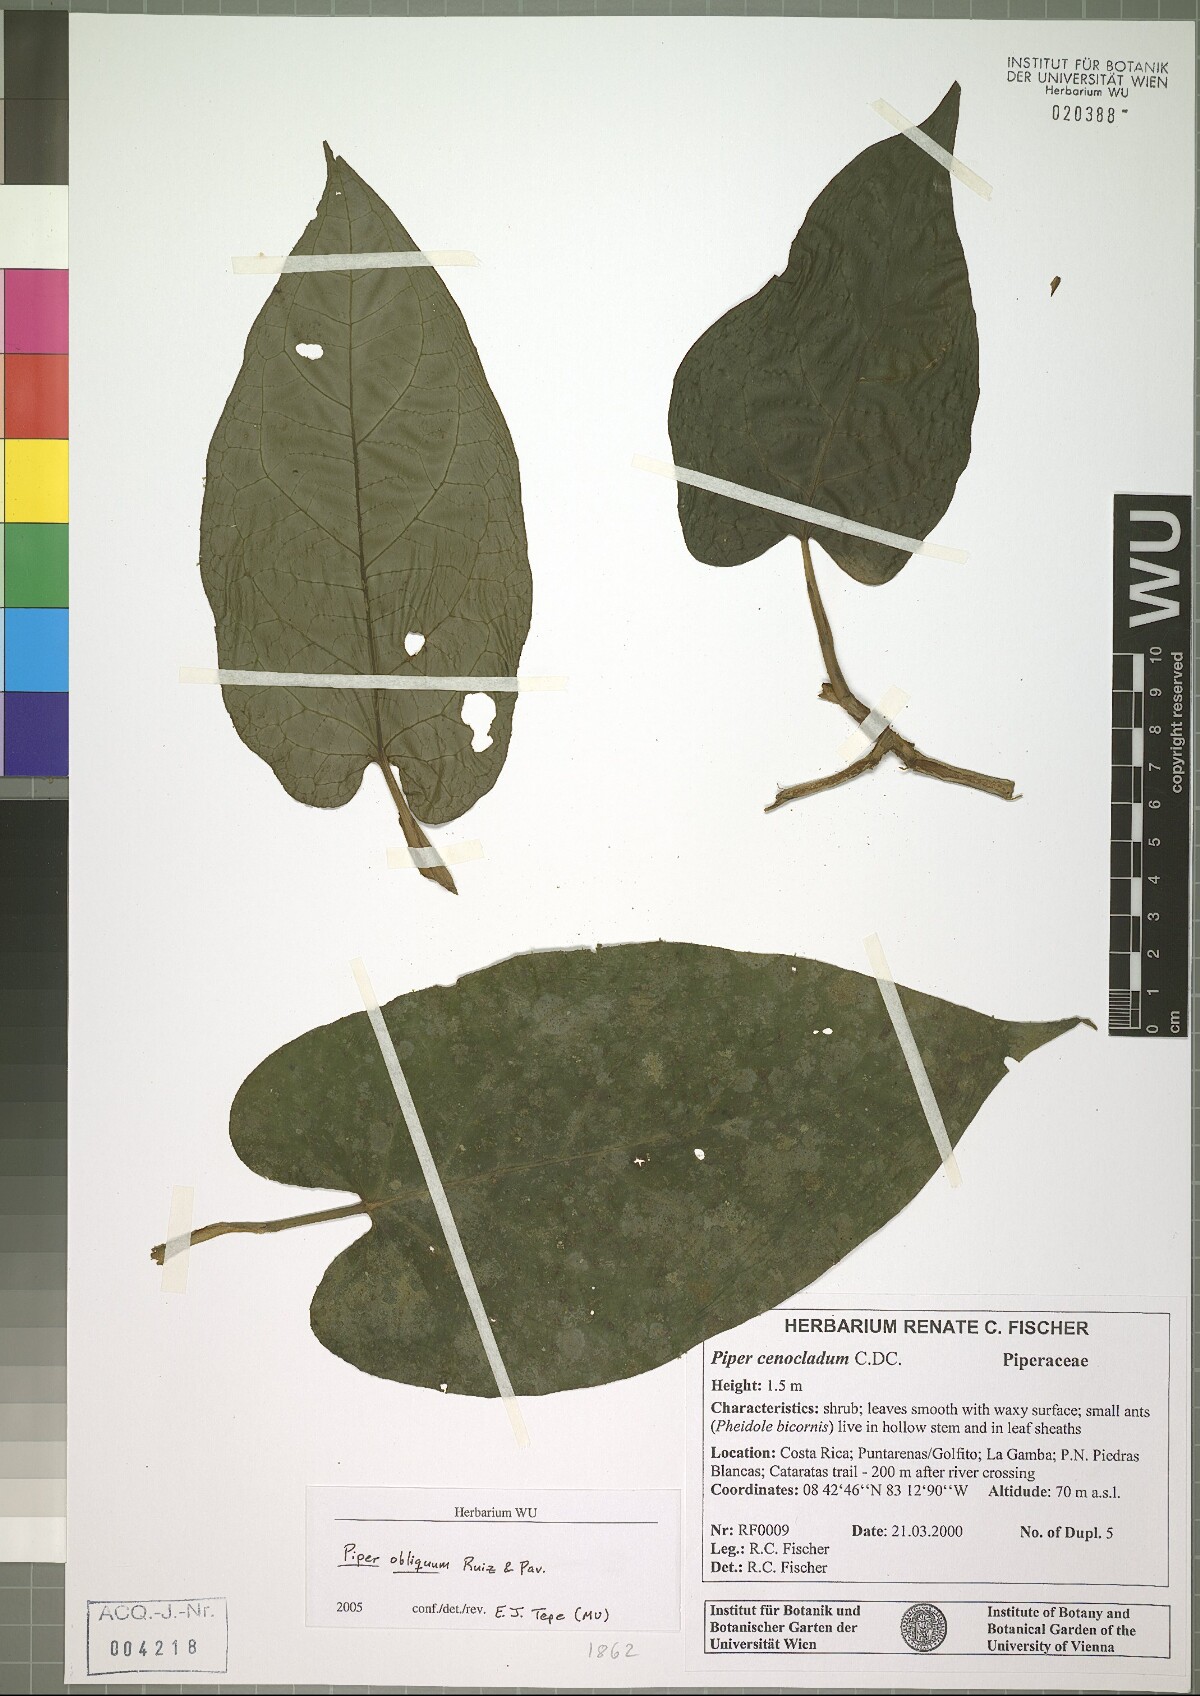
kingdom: Plantae
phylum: Tracheophyta
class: Magnoliopsida
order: Piperales
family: Piperaceae
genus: Piper
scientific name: Piper obliquum
